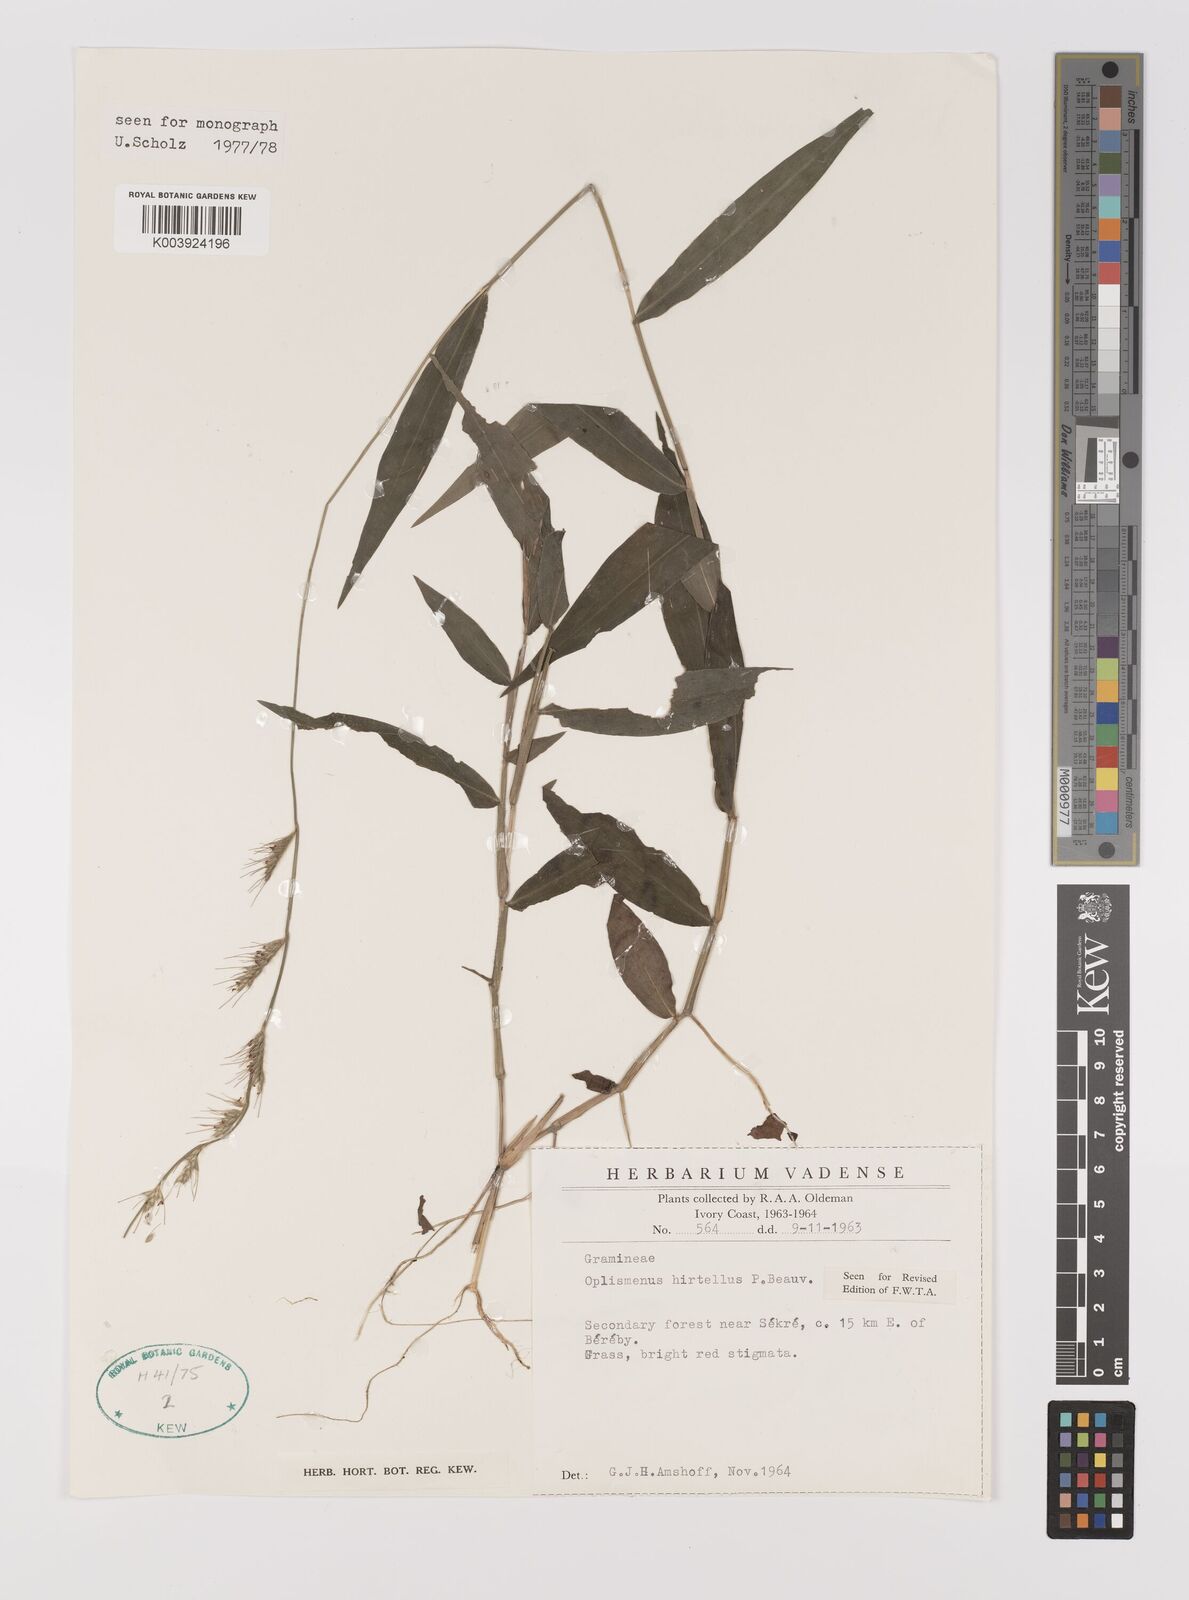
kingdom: Plantae
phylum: Tracheophyta
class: Liliopsida
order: Poales
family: Poaceae
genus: Oplismenus
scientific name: Oplismenus hirtellus
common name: Basketgrass
